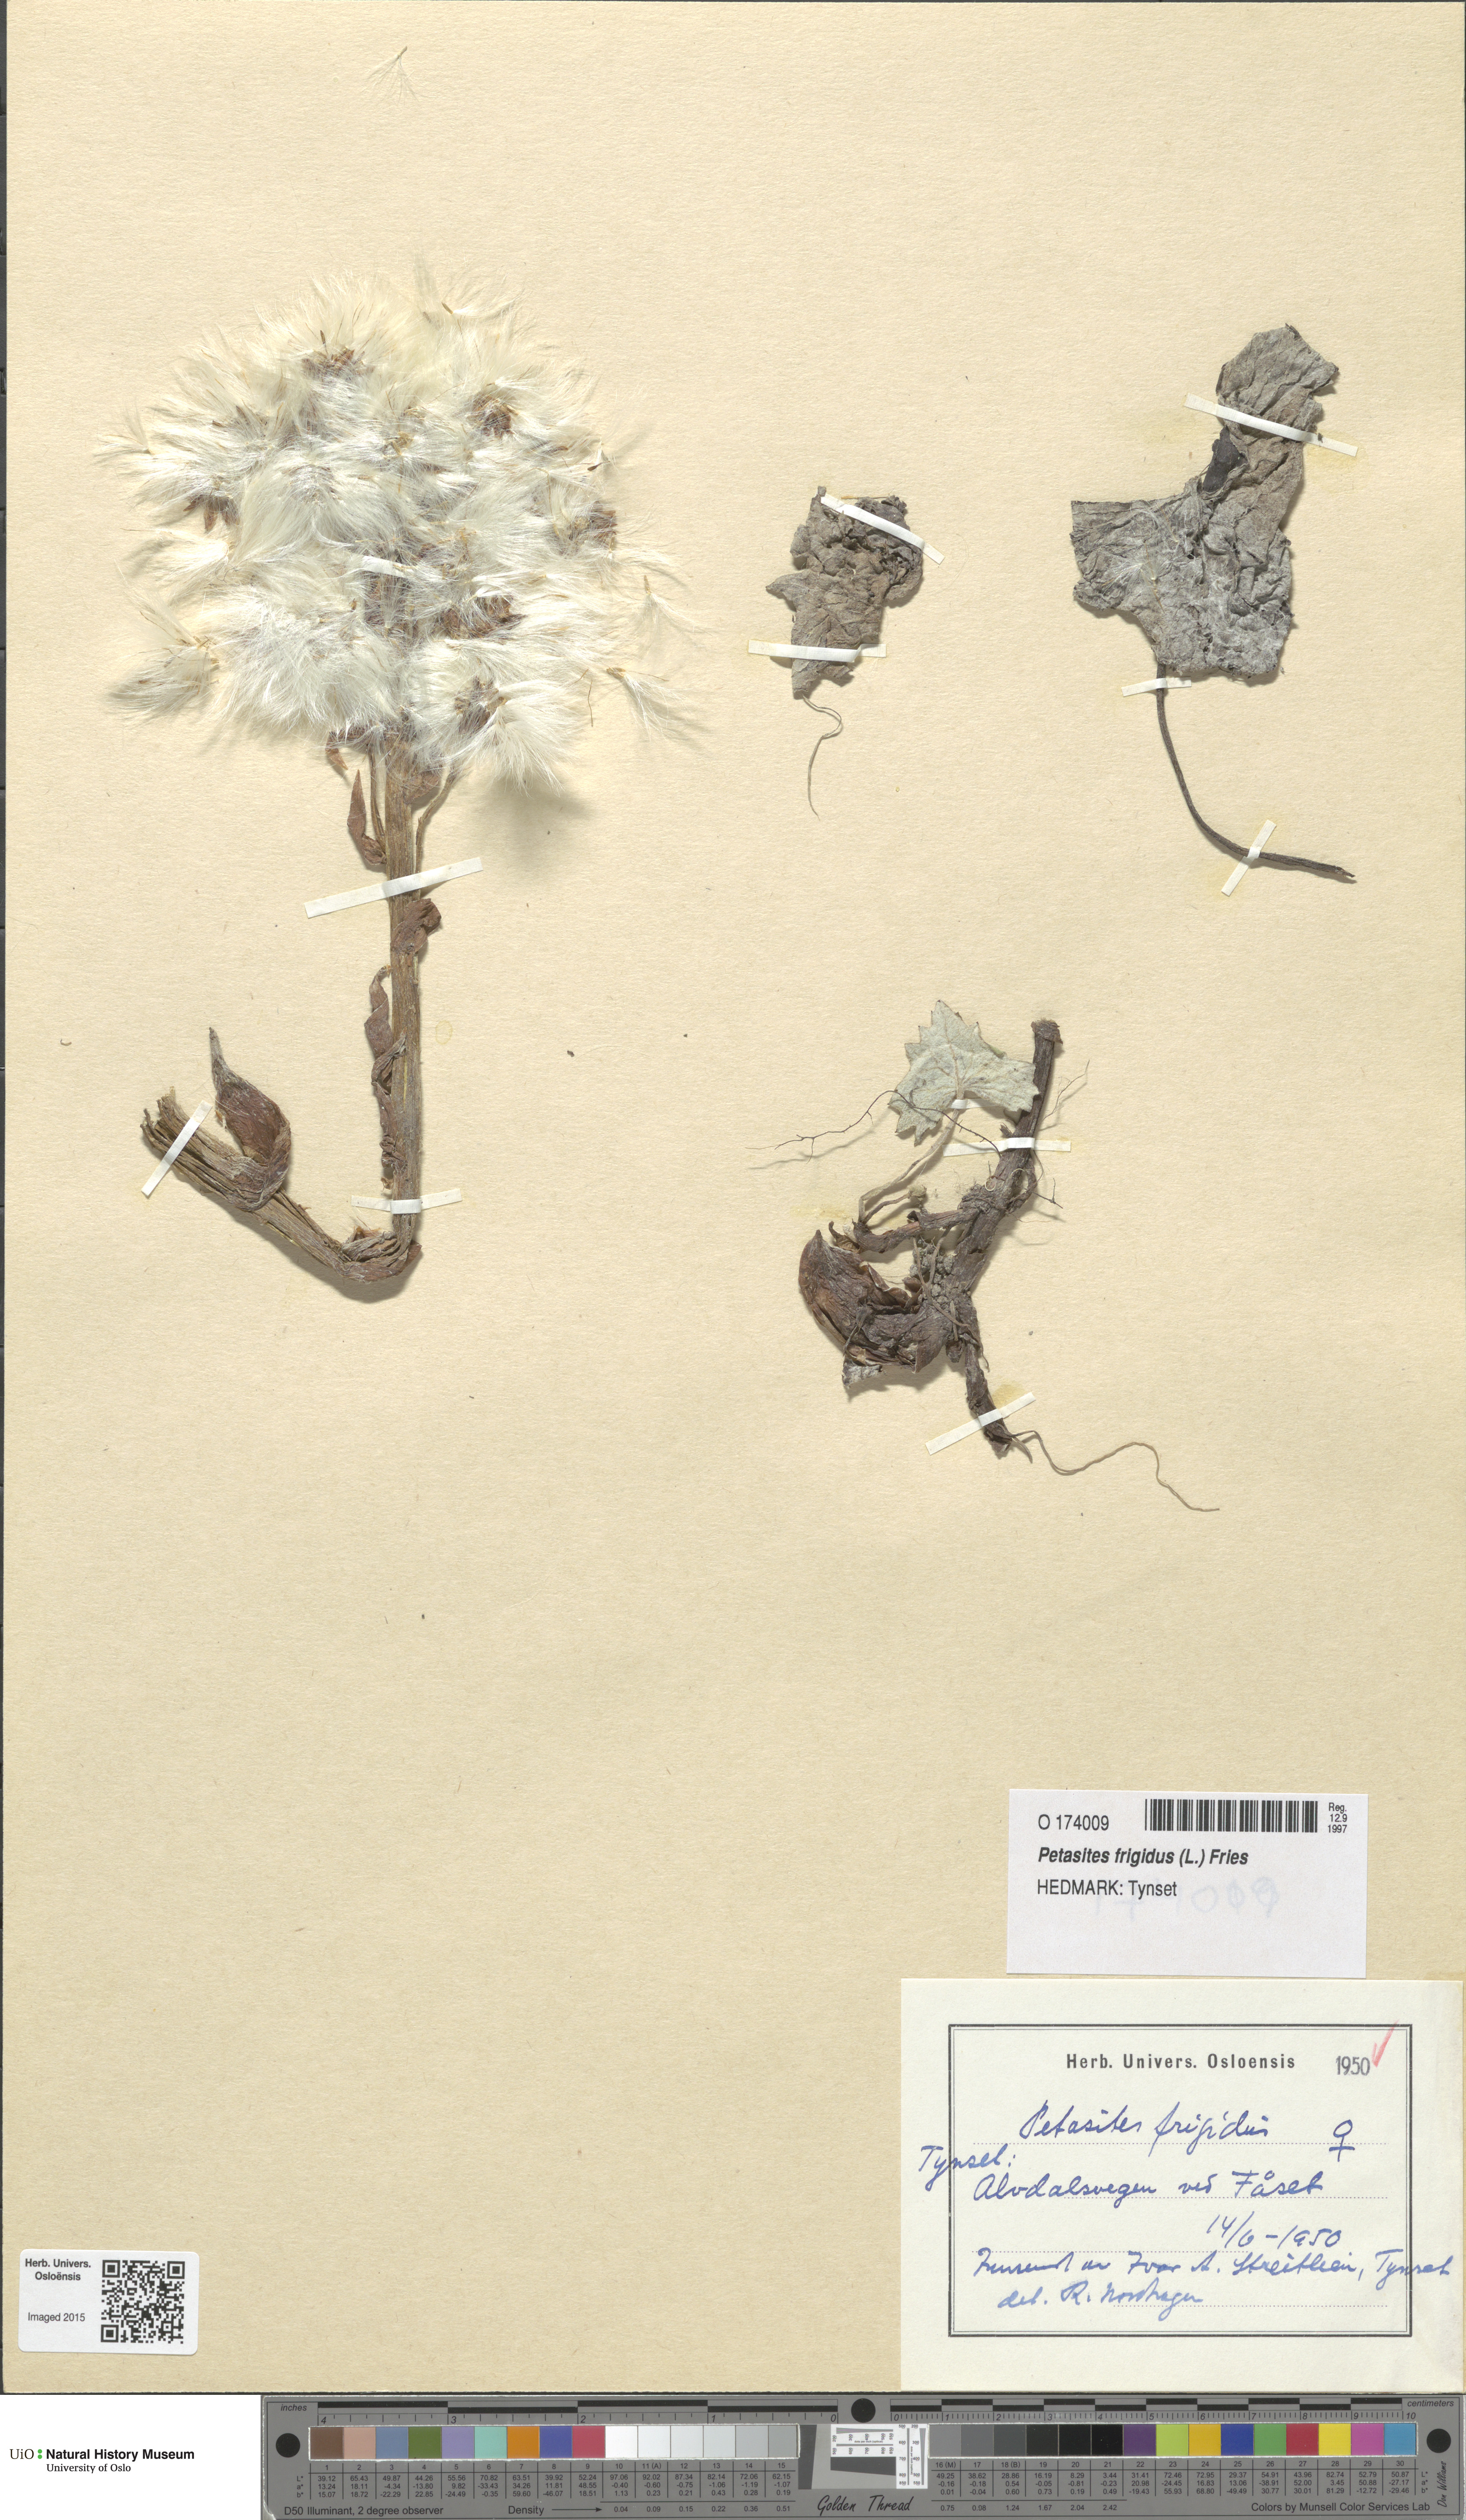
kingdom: Plantae
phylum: Tracheophyta
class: Magnoliopsida
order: Asterales
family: Asteraceae
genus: Petasites
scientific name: Petasites frigidus
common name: Arctic butterbur
